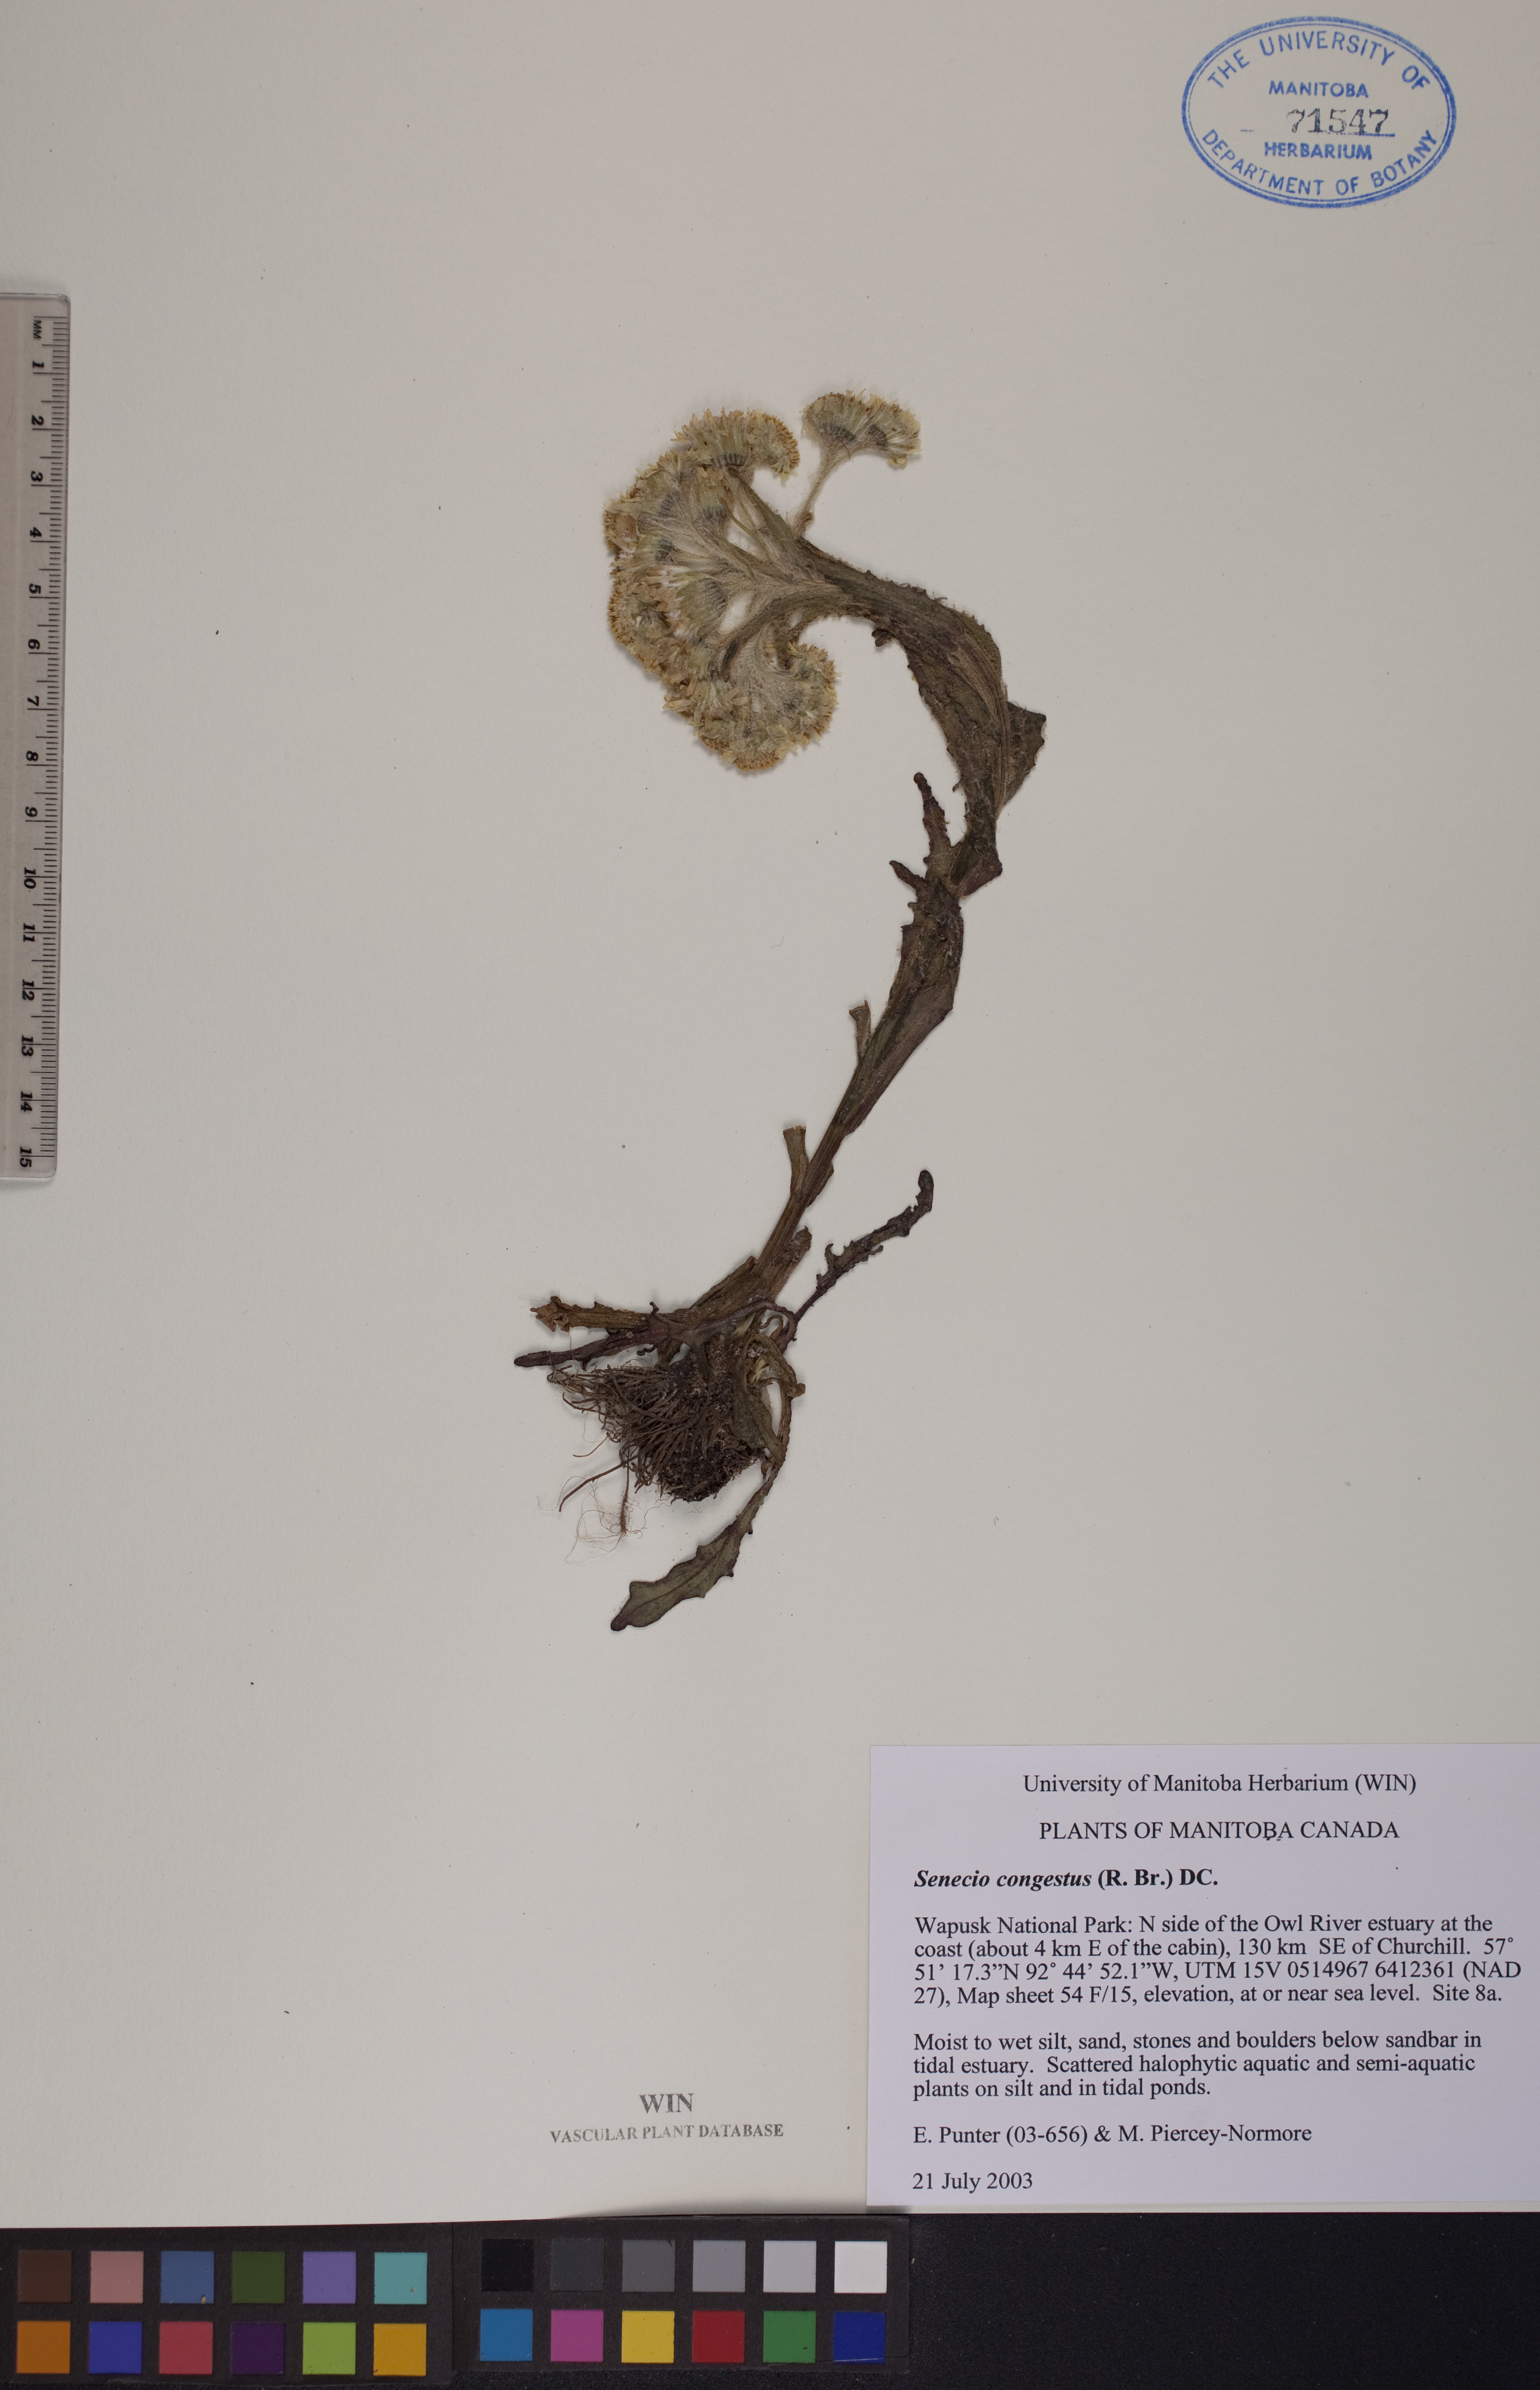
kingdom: Plantae
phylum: Tracheophyta
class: Magnoliopsida
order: Asterales
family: Asteraceae
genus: Tephroseris
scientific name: Tephroseris palustris
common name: Marsh fleawort
